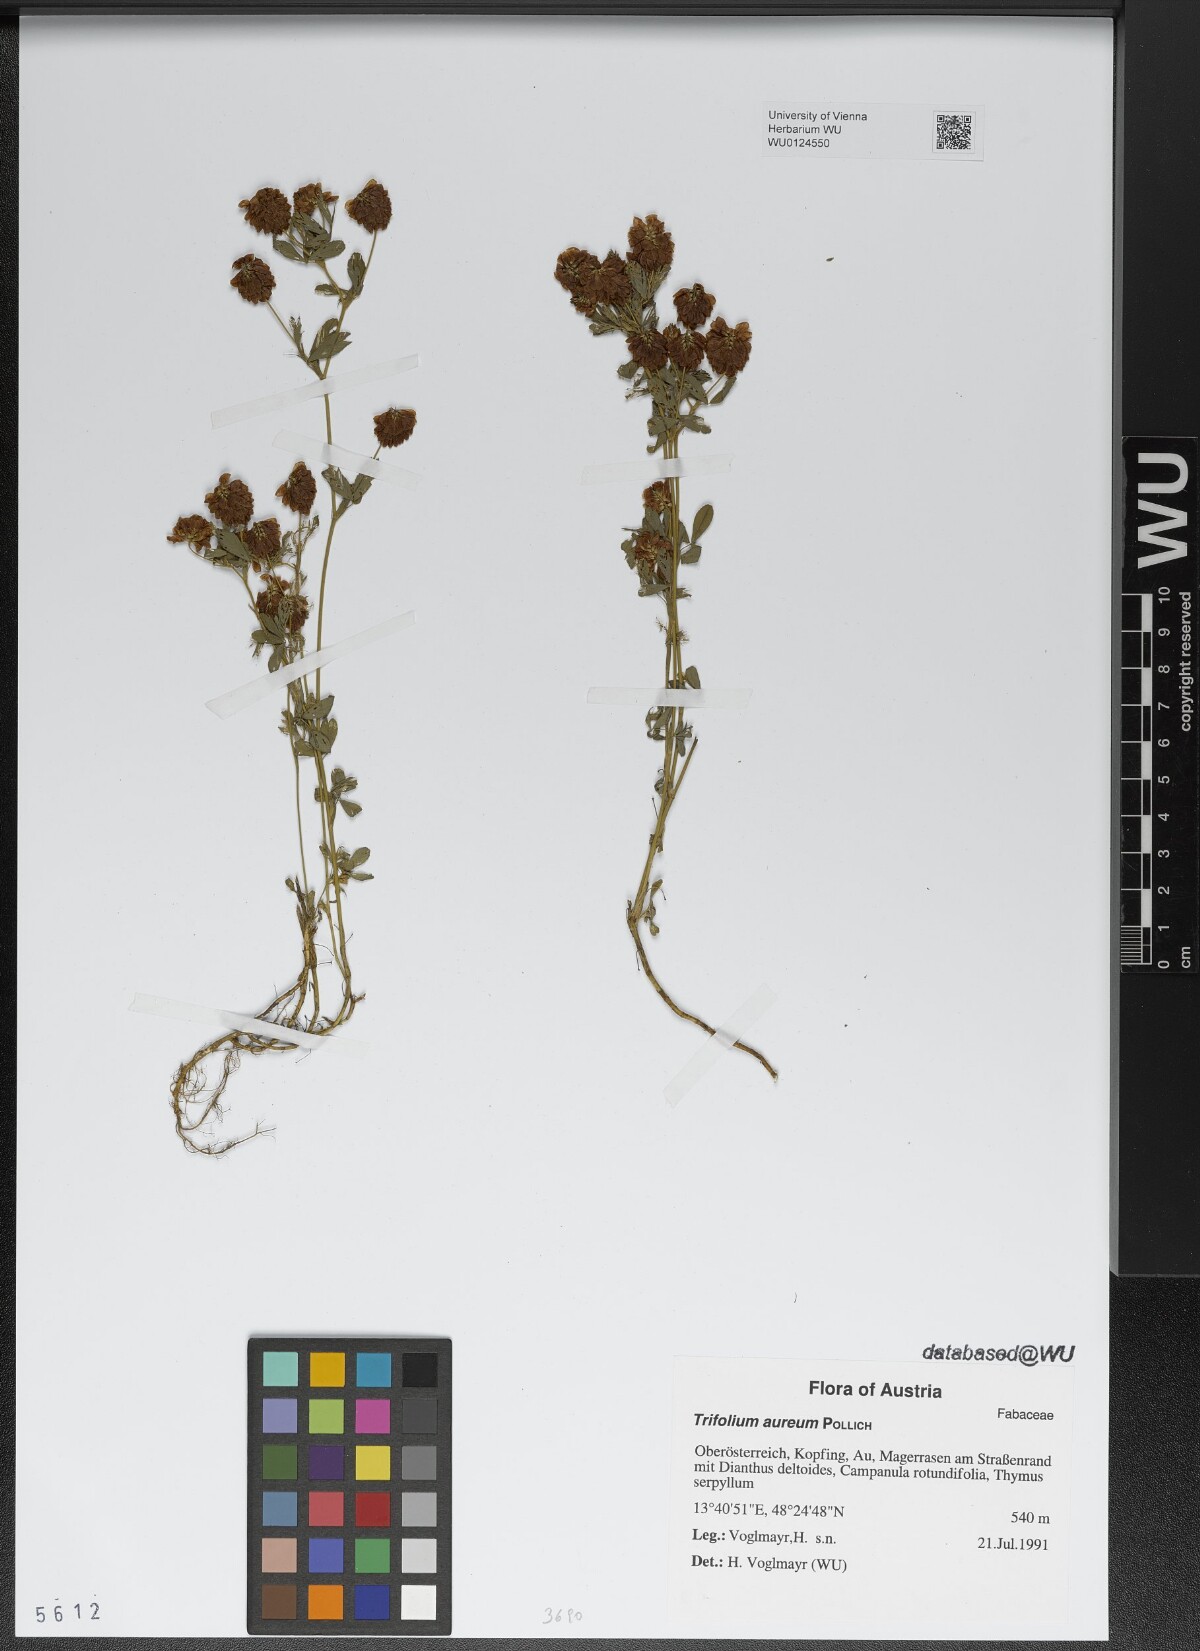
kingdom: Plantae
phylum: Tracheophyta
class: Magnoliopsida
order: Fabales
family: Fabaceae
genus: Trifolium
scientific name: Trifolium aureum
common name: Golden clover
